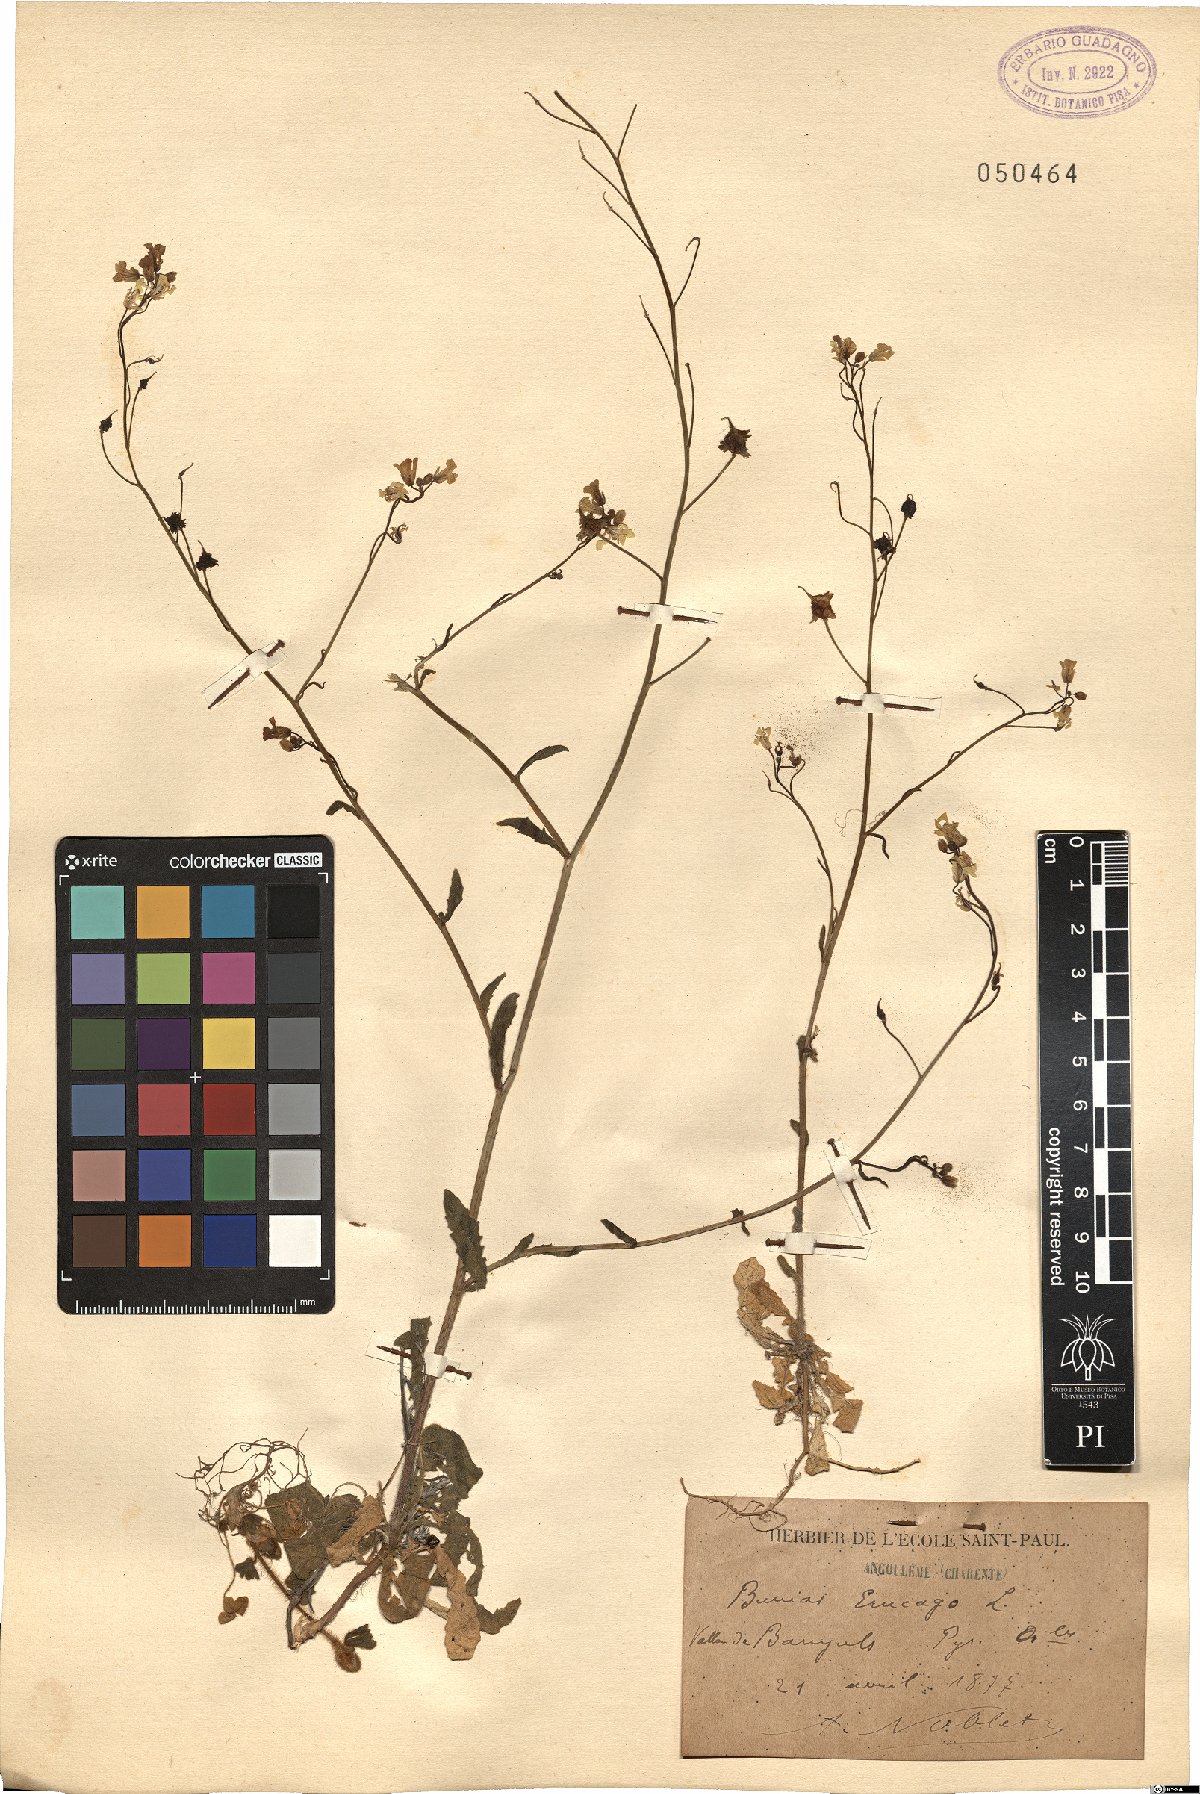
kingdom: Plantae
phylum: Tracheophyta
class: Magnoliopsida
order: Brassicales
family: Brassicaceae
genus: Bunias
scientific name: Bunias erucago
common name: Southern warty-cabbage
